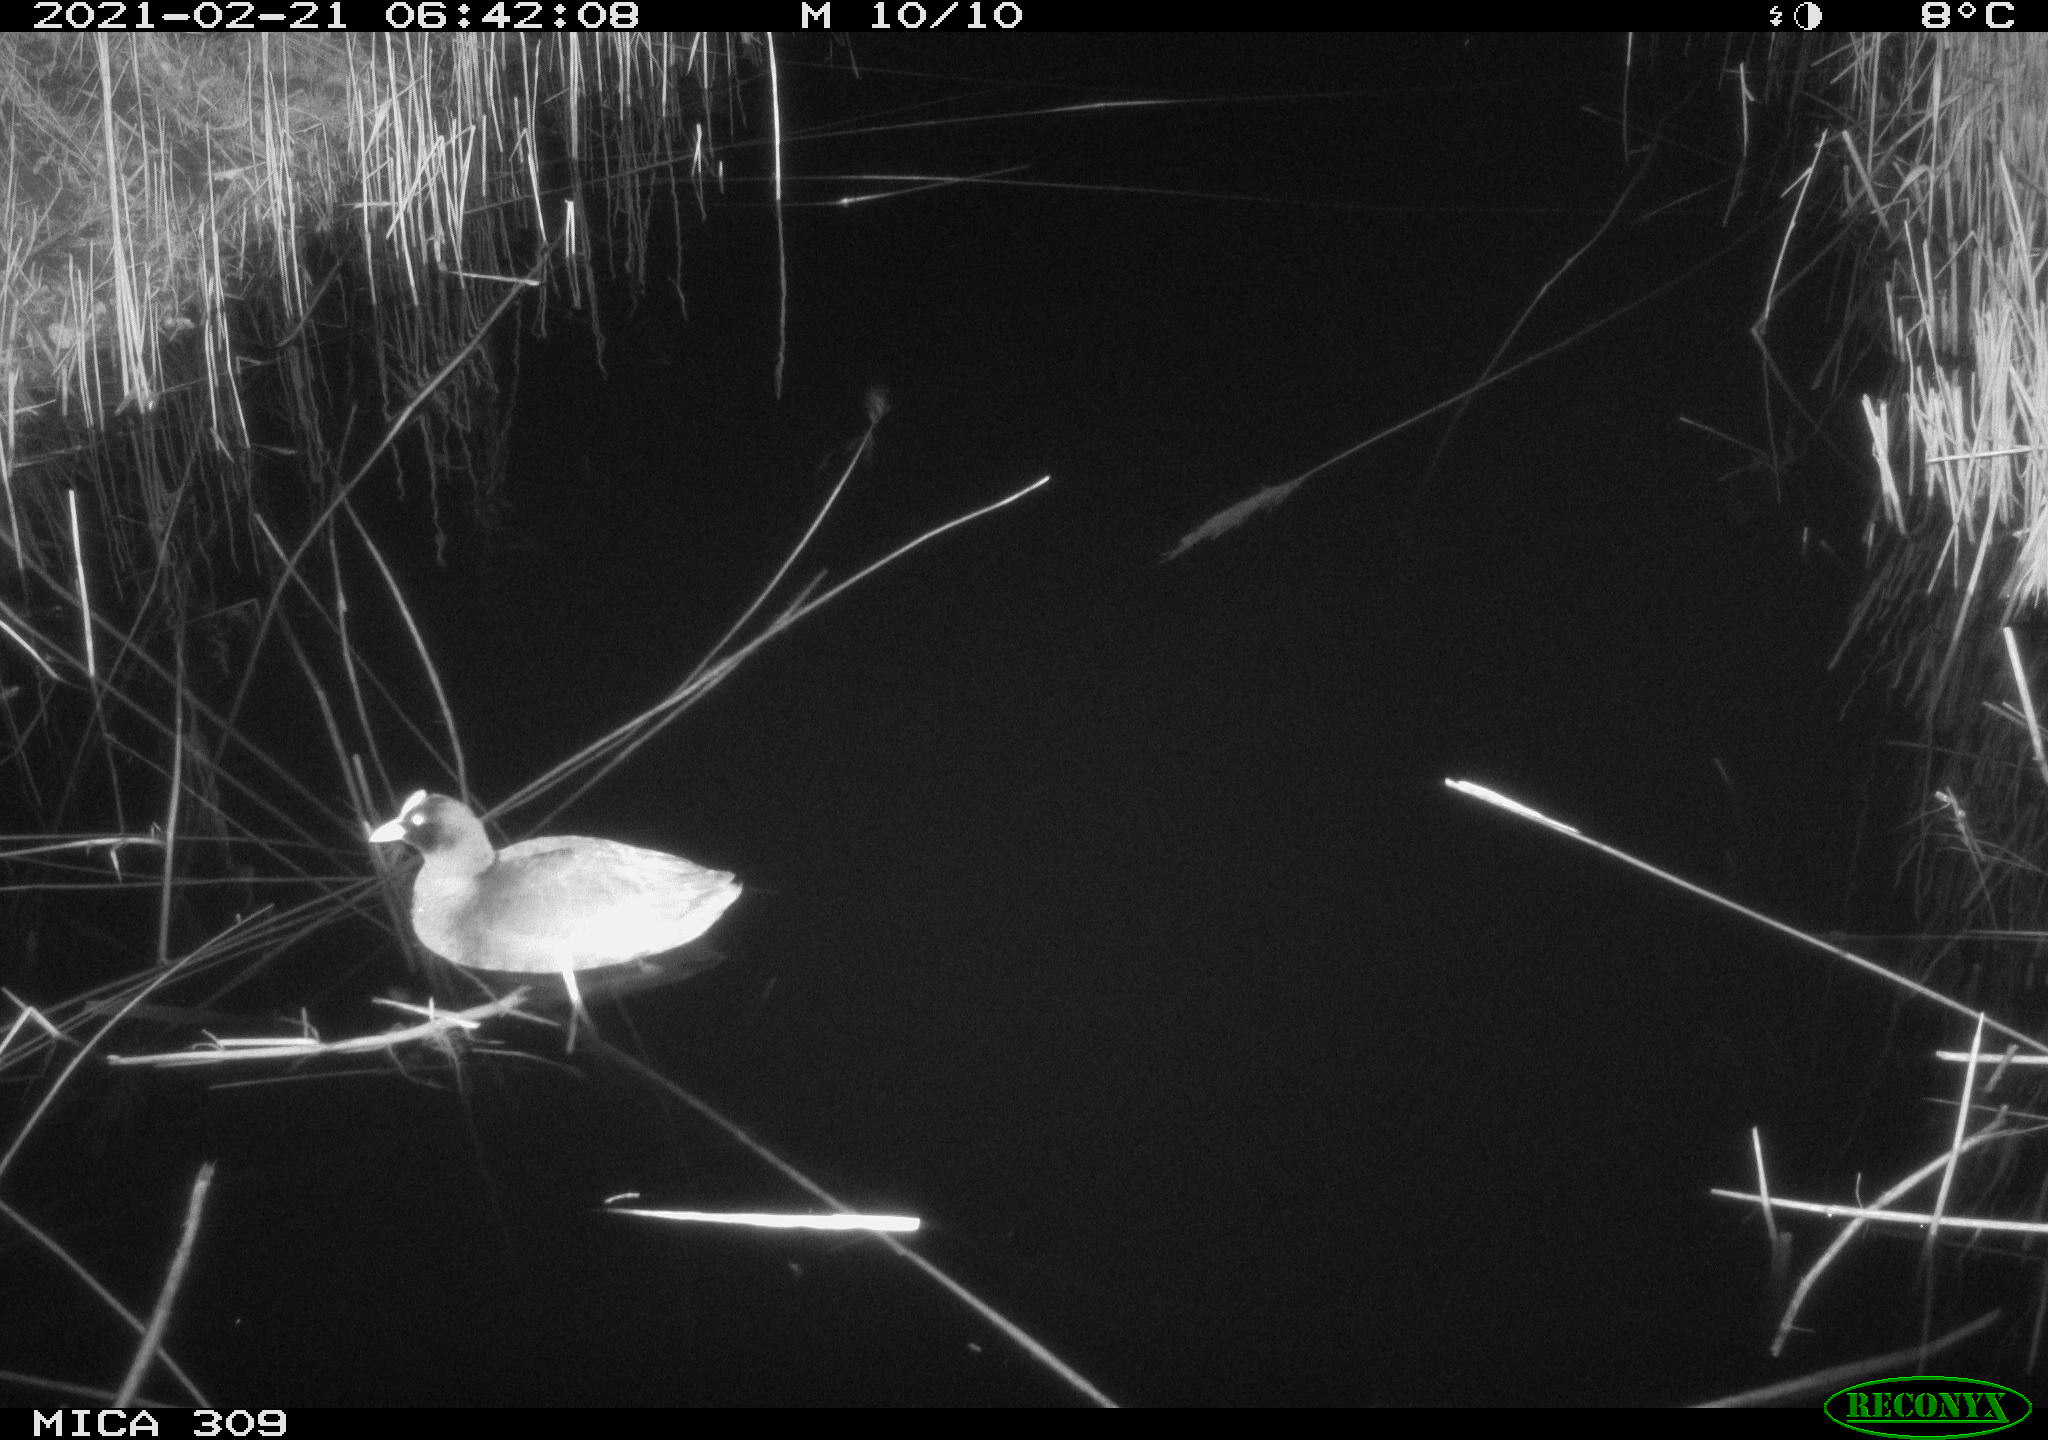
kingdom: Animalia
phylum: Chordata
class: Aves
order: Gruiformes
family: Rallidae
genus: Gallinula
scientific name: Gallinula chloropus
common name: Common moorhen
